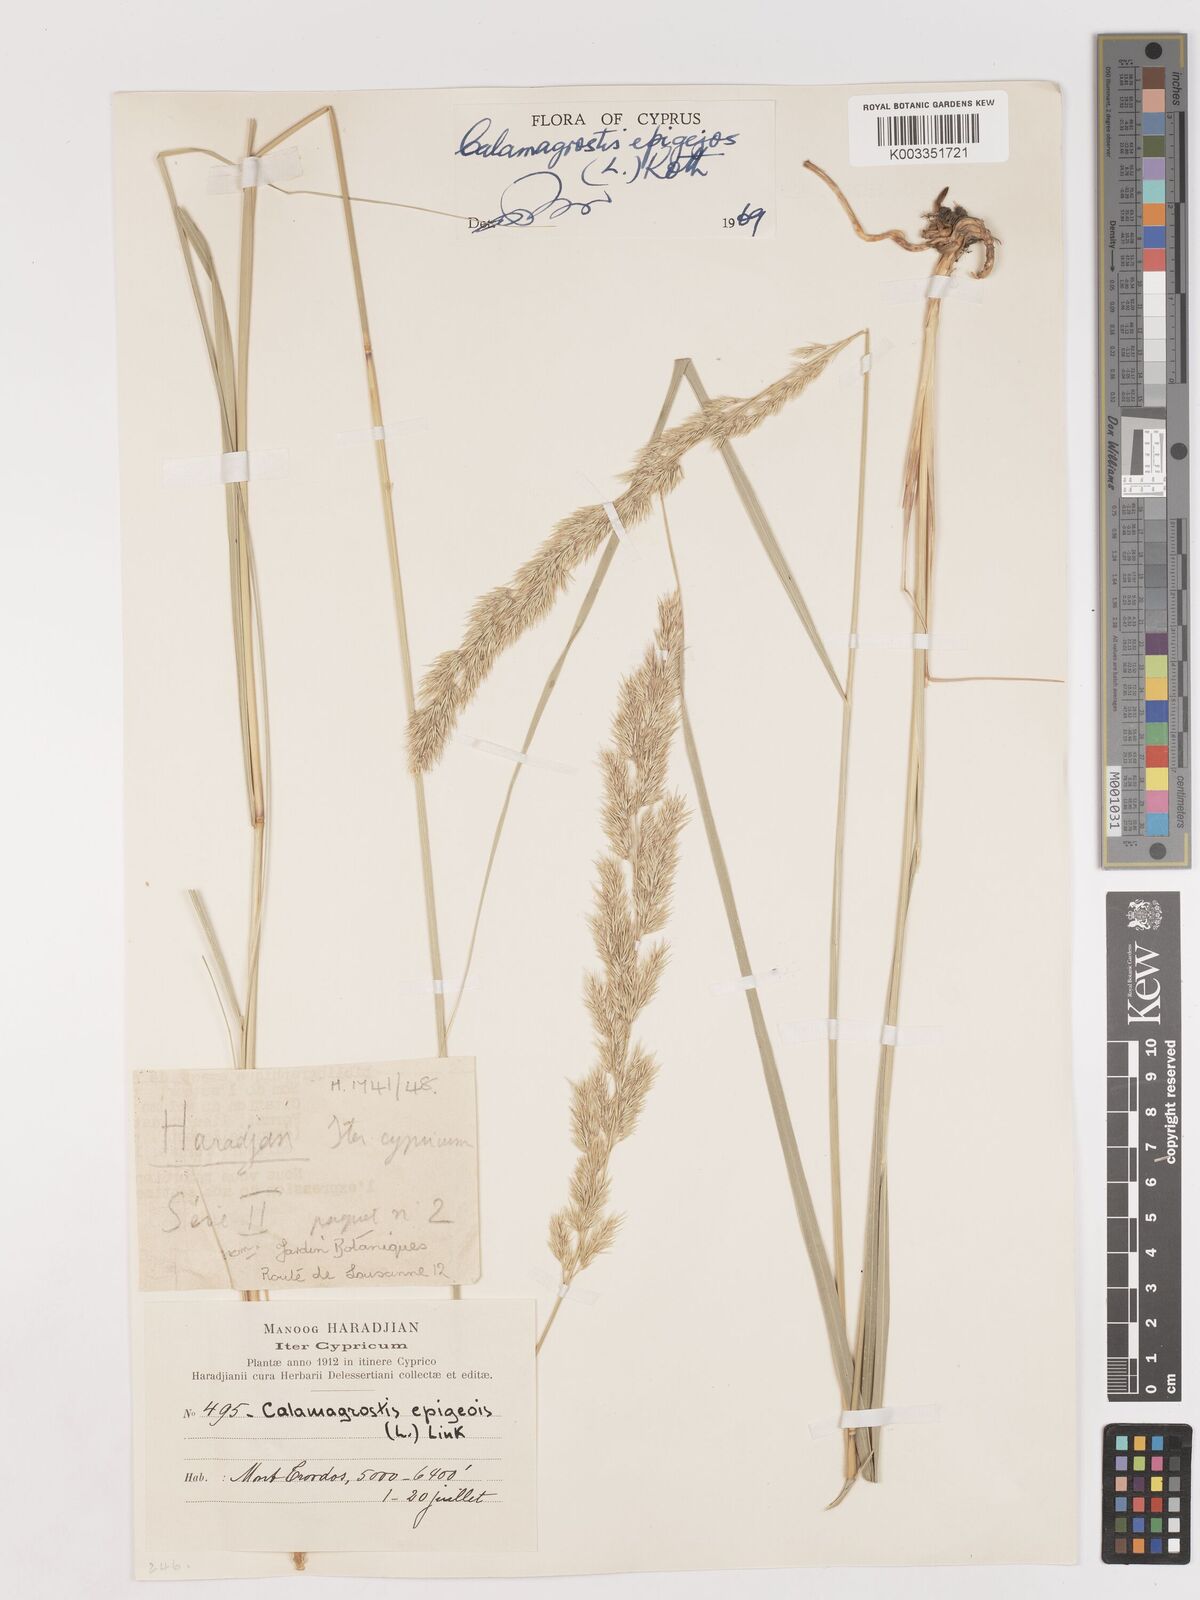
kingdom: Plantae
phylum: Tracheophyta
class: Liliopsida
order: Poales
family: Poaceae
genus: Calamagrostis
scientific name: Calamagrostis epigejos
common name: Wood small-reed
